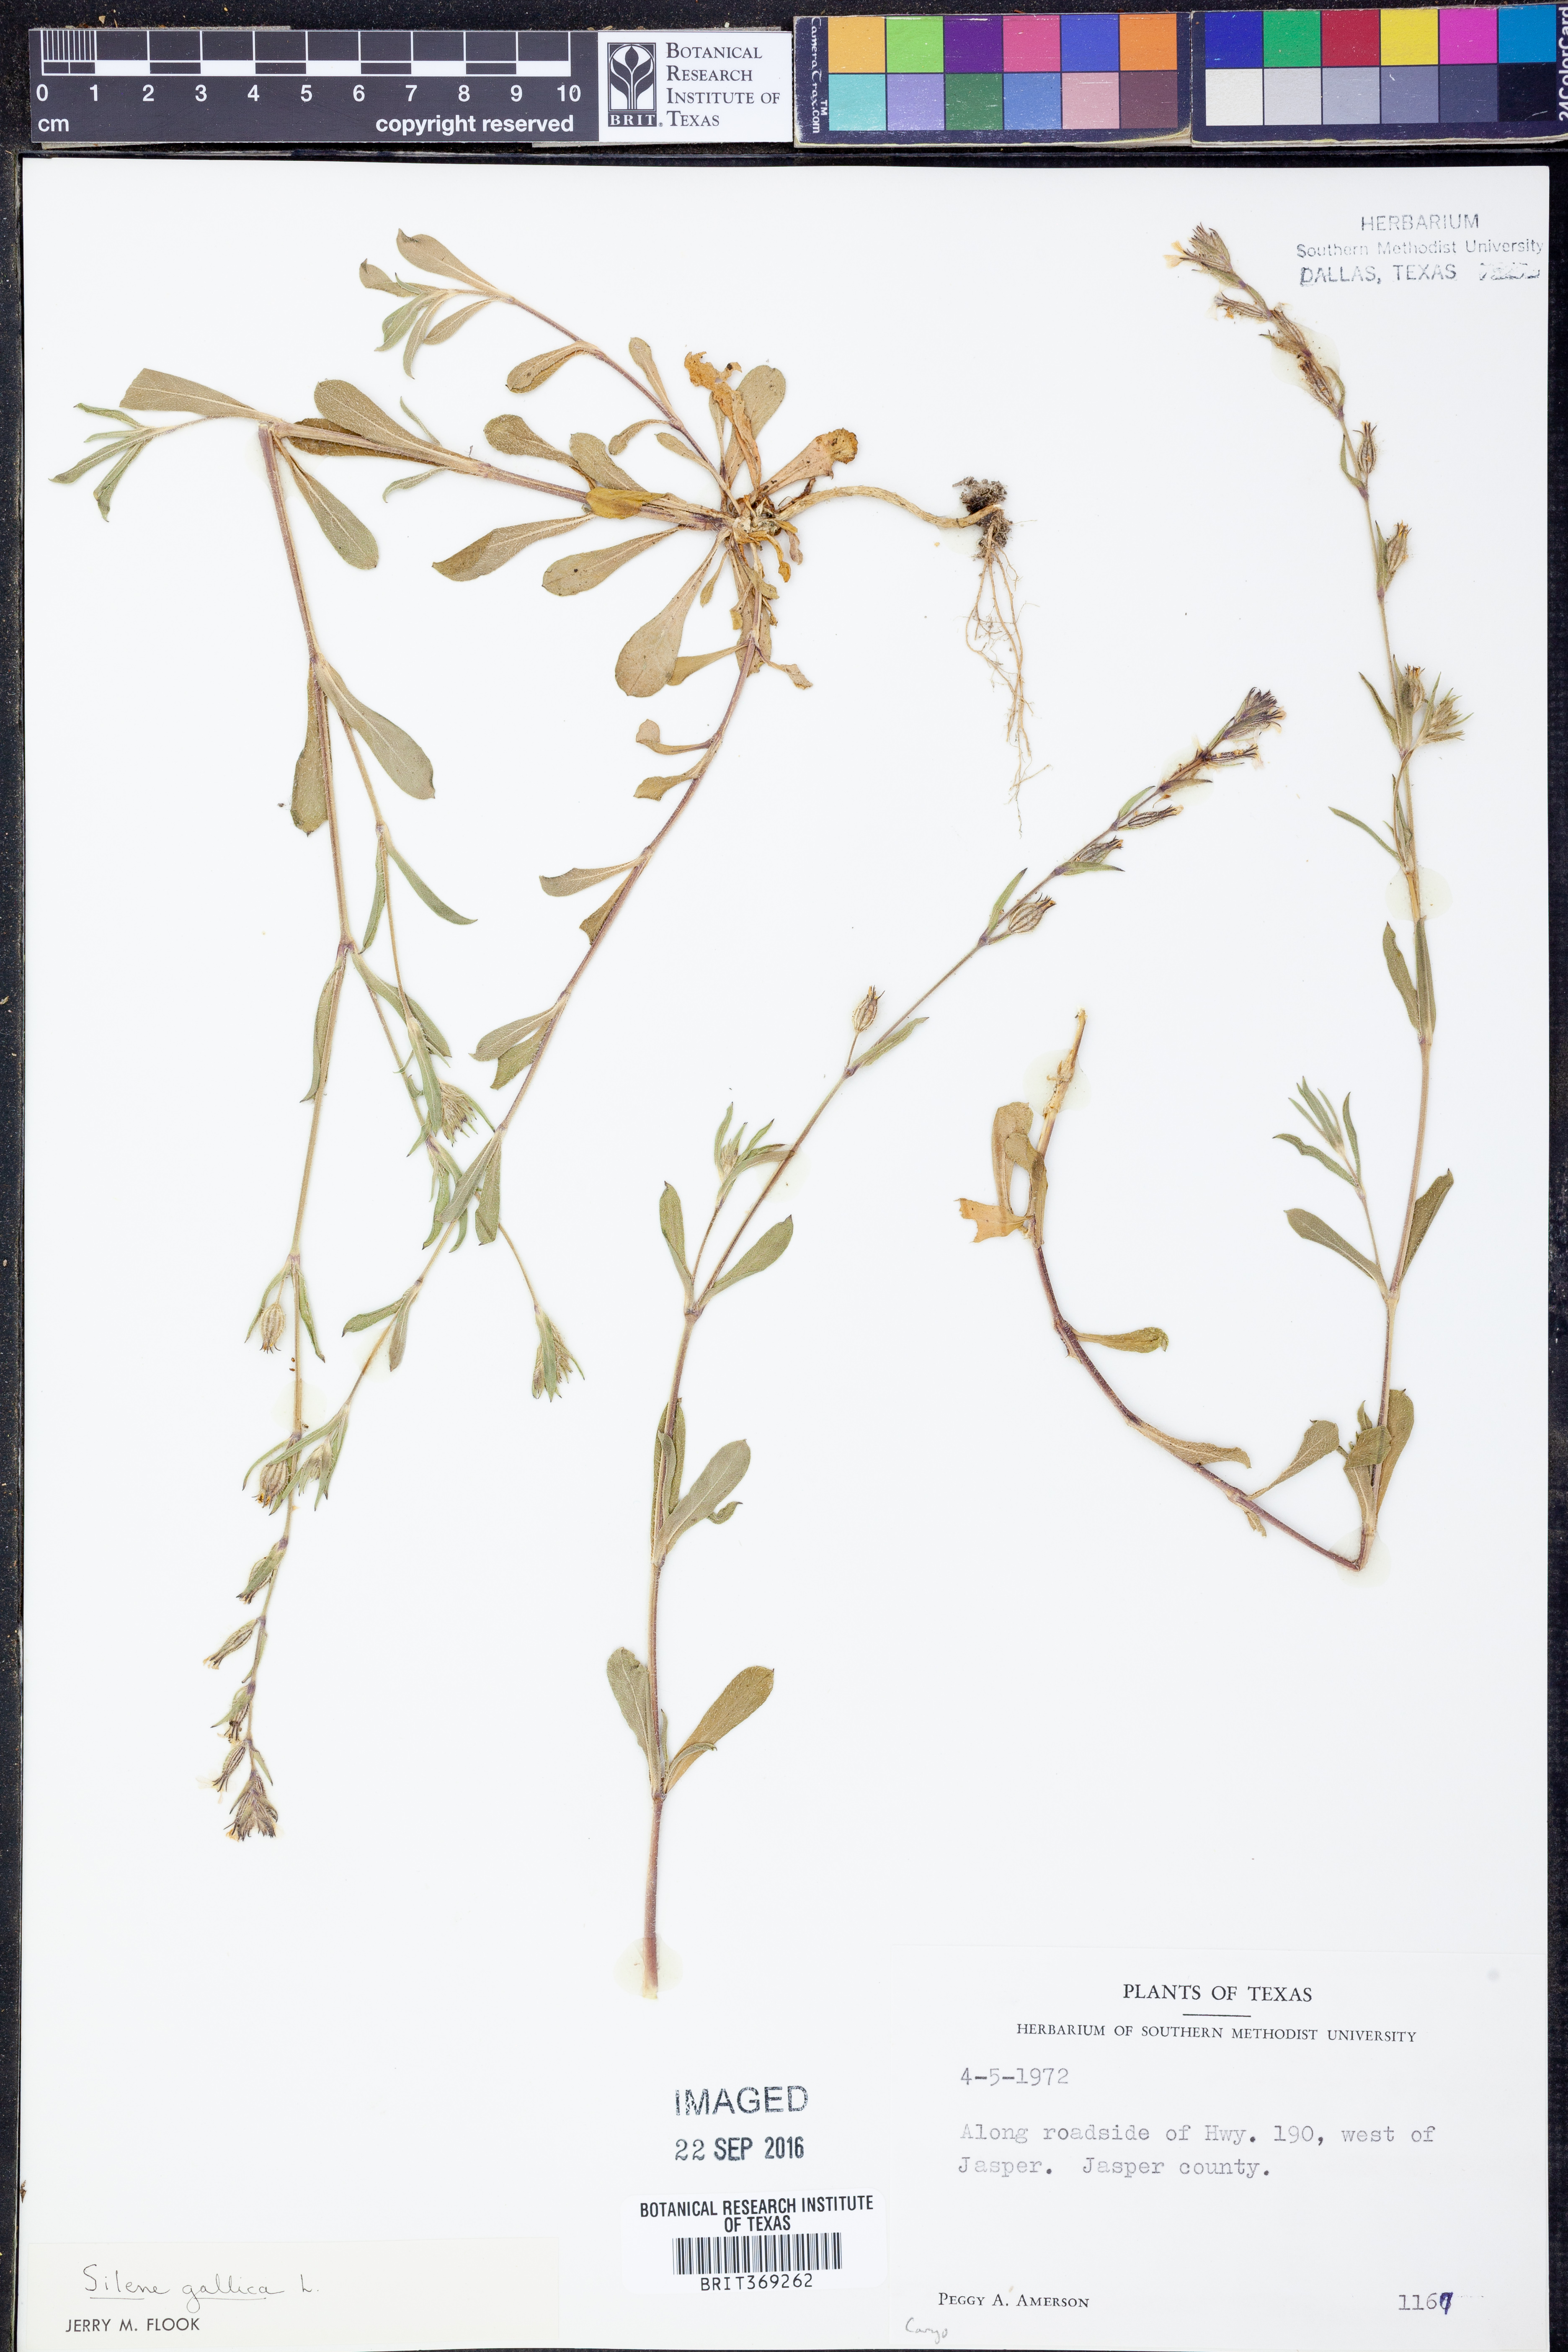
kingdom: Plantae
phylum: Tracheophyta
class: Magnoliopsida
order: Caryophyllales
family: Caryophyllaceae
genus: Silene
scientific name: Silene gallica
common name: Small-flowered catchfly
